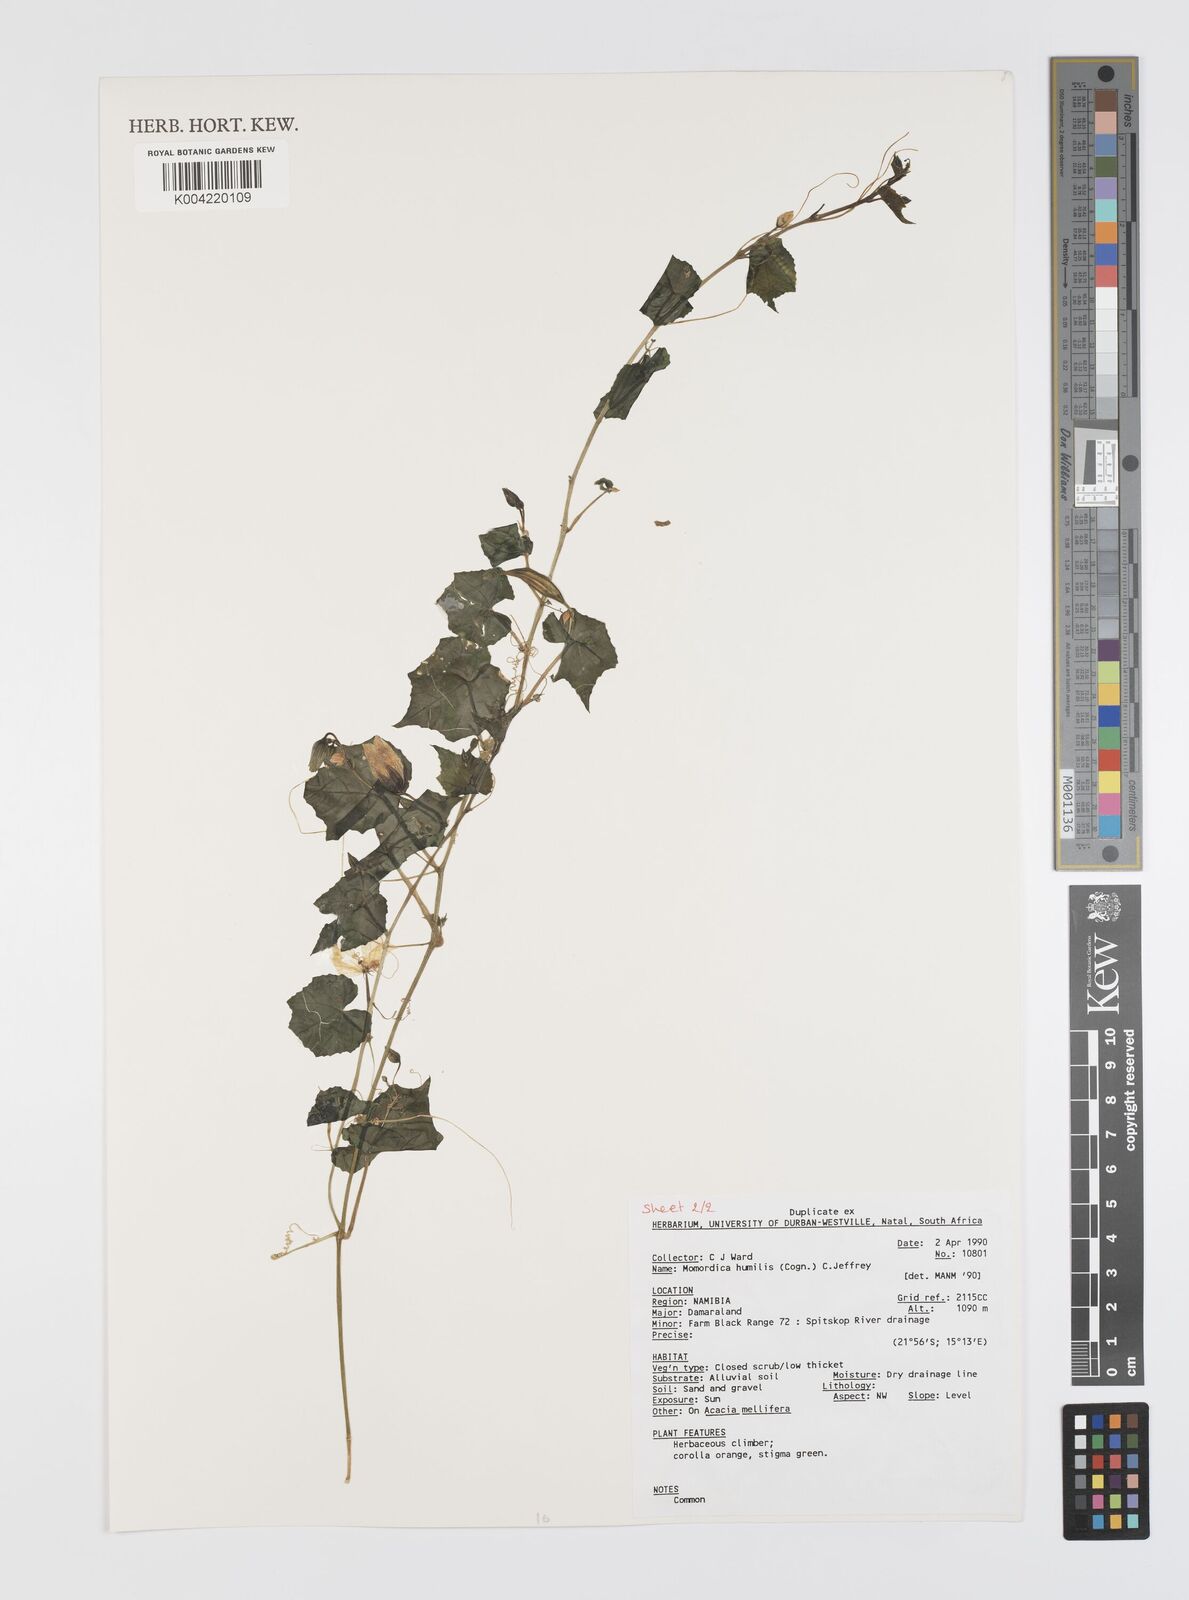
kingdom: Plantae
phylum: Tracheophyta
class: Magnoliopsida
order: Cucurbitales
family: Cucurbitaceae
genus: Momordica
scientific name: Momordica
